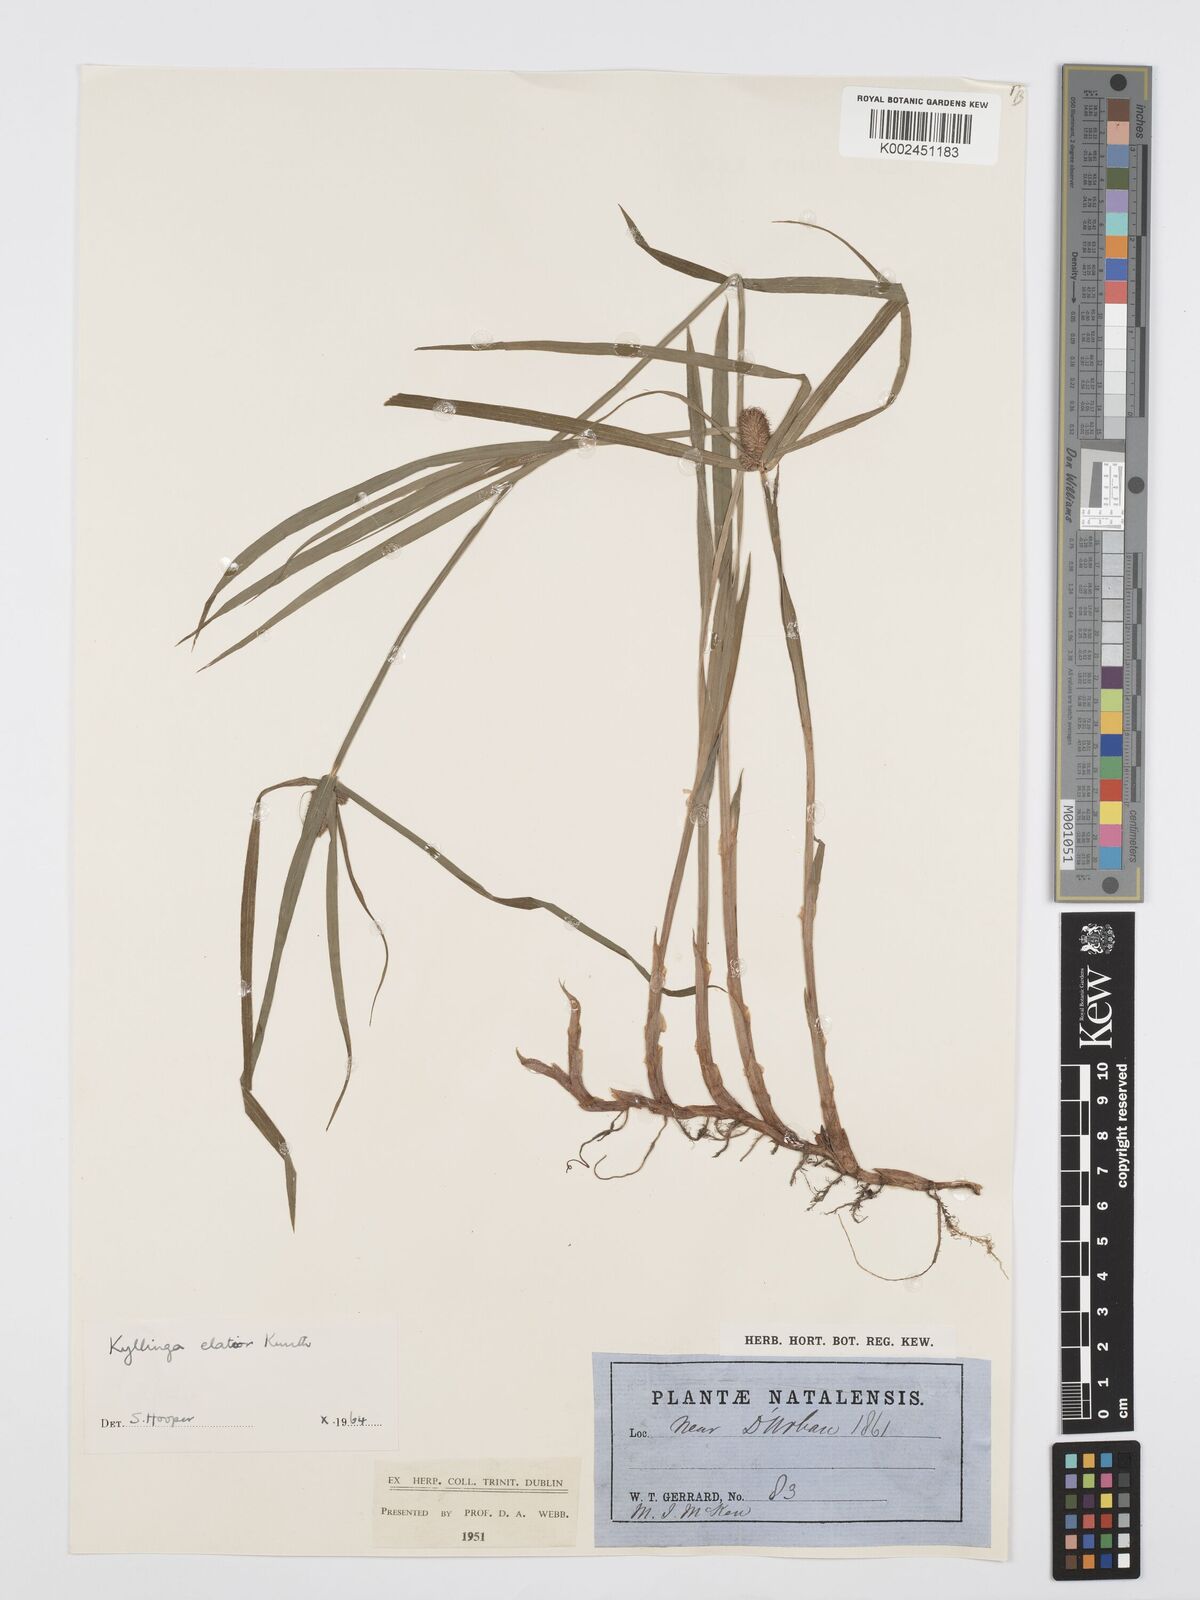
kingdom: Plantae
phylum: Tracheophyta
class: Liliopsida
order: Poales
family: Cyperaceae
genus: Cyperus
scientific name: Cyperus
